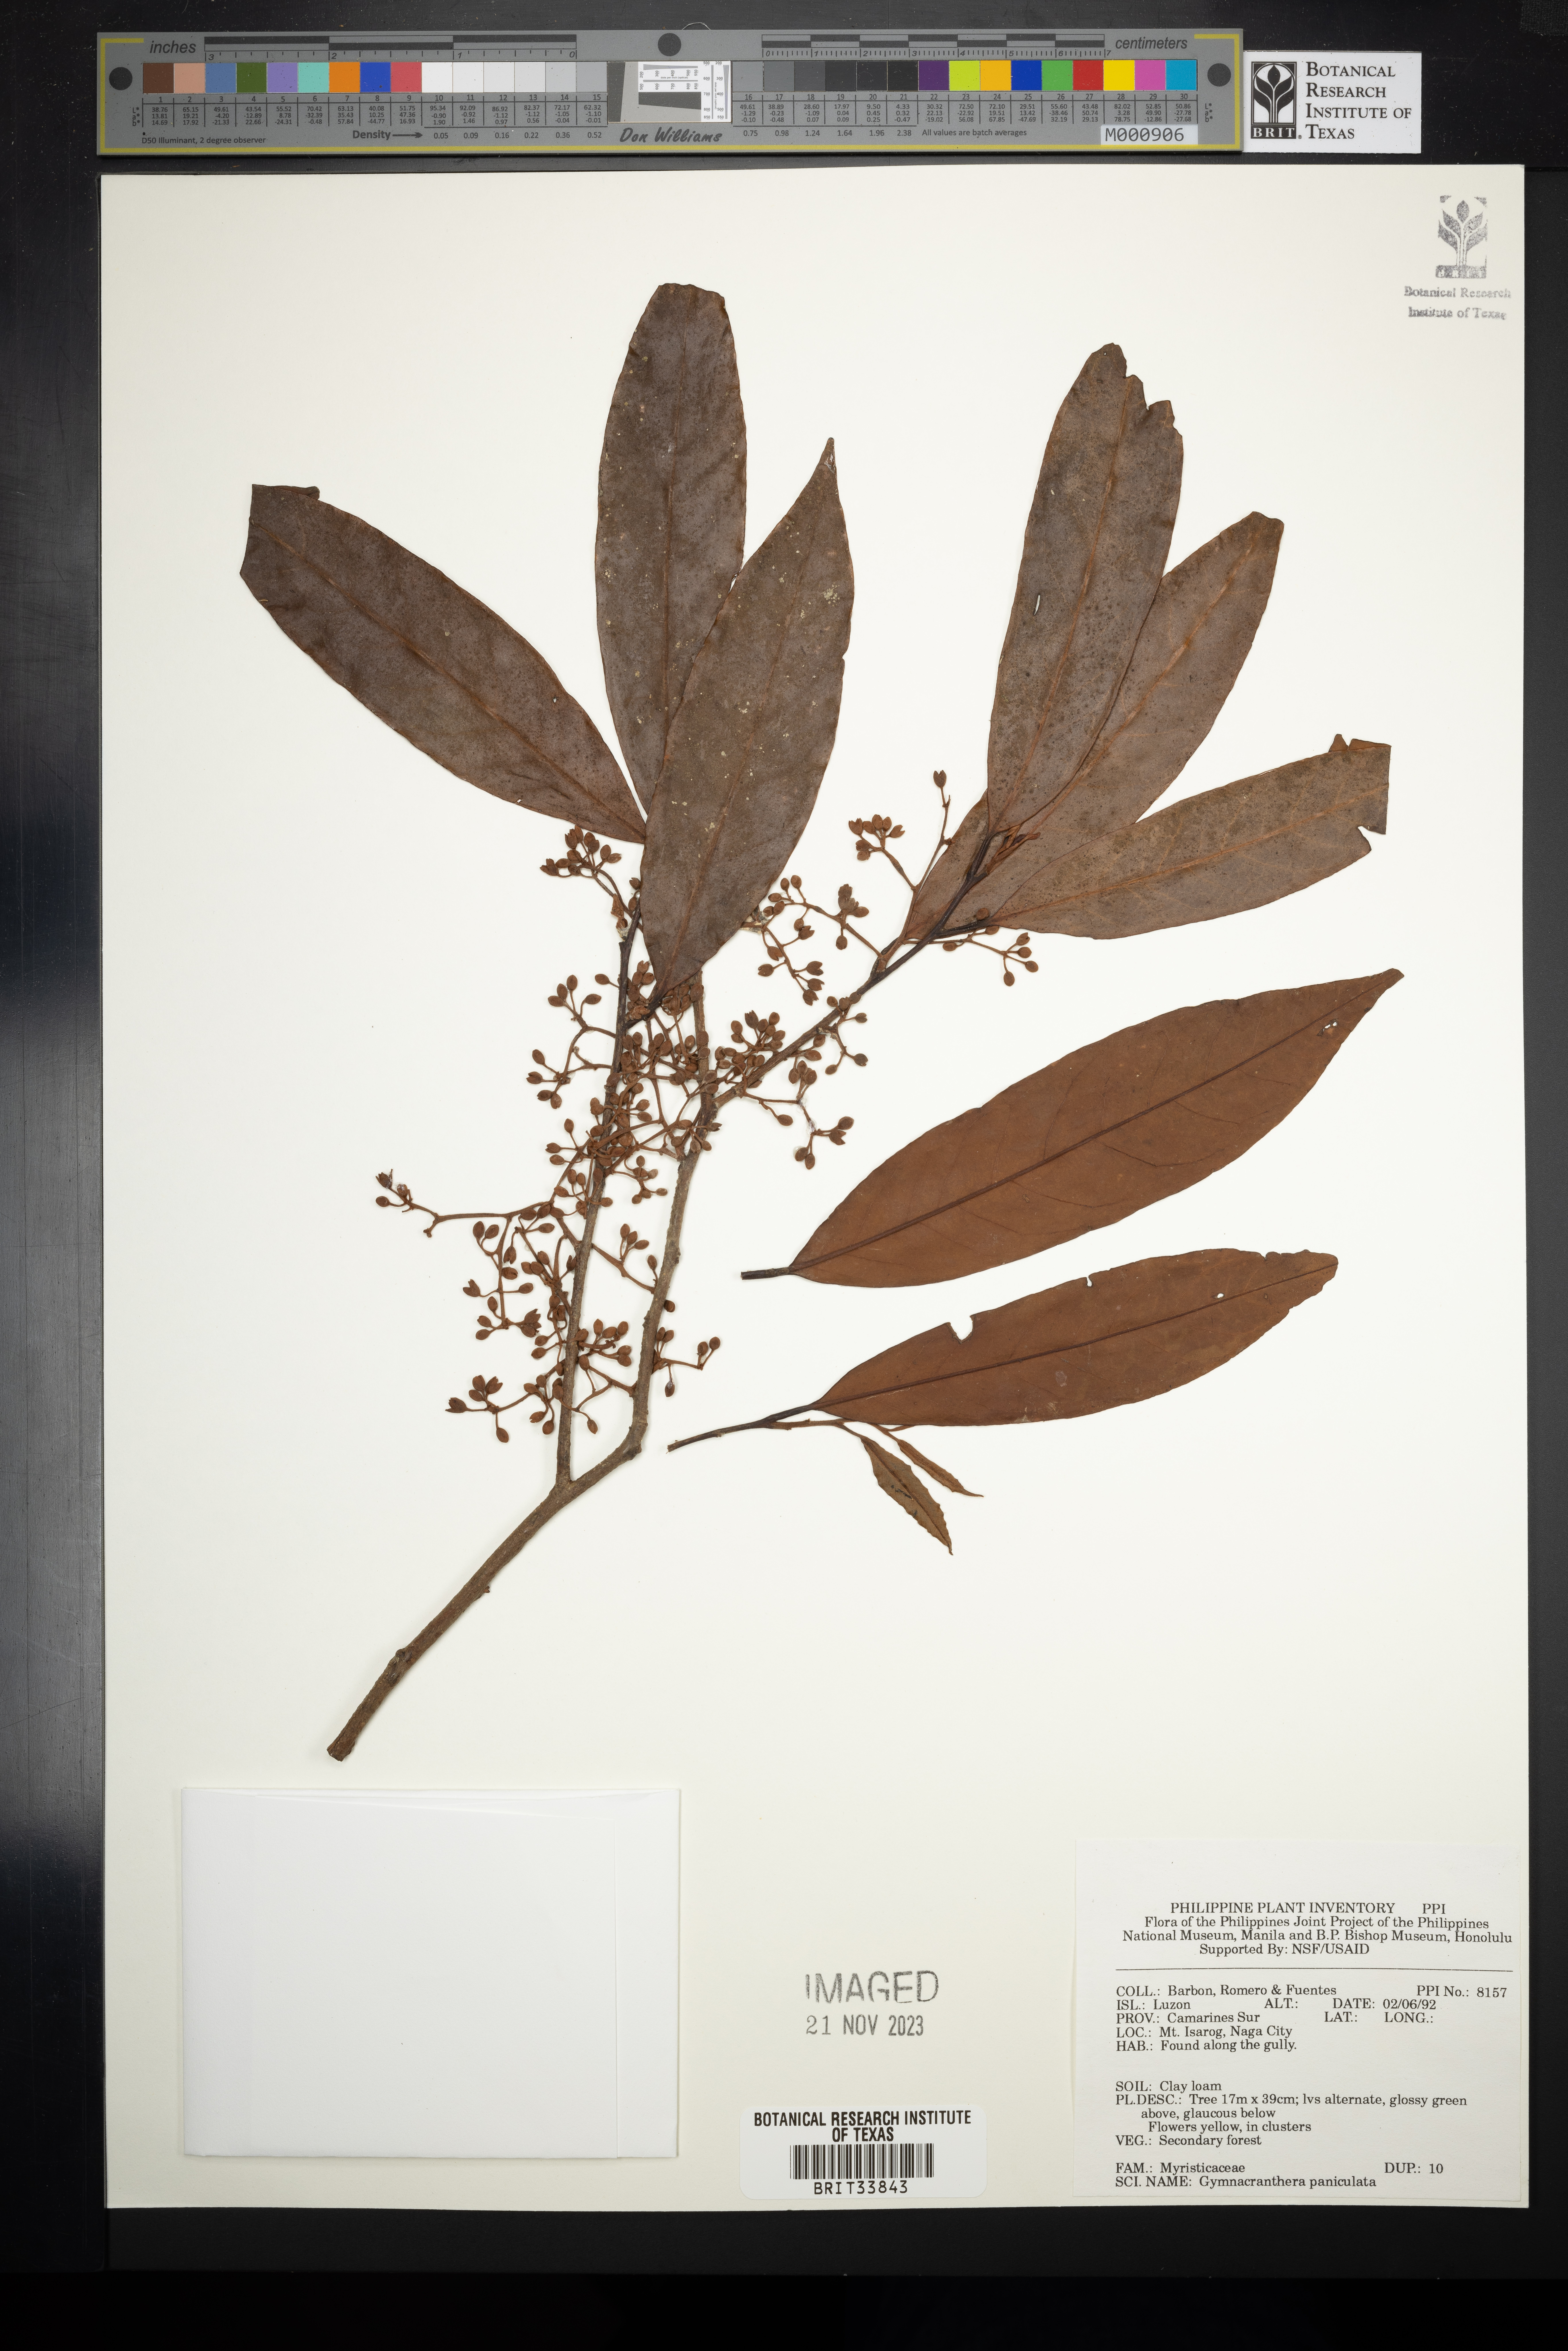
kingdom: Plantae
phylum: Tracheophyta
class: Magnoliopsida
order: Magnoliales
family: Myristicaceae
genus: Gymnacranthera
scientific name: Gymnacranthera farquhariana
